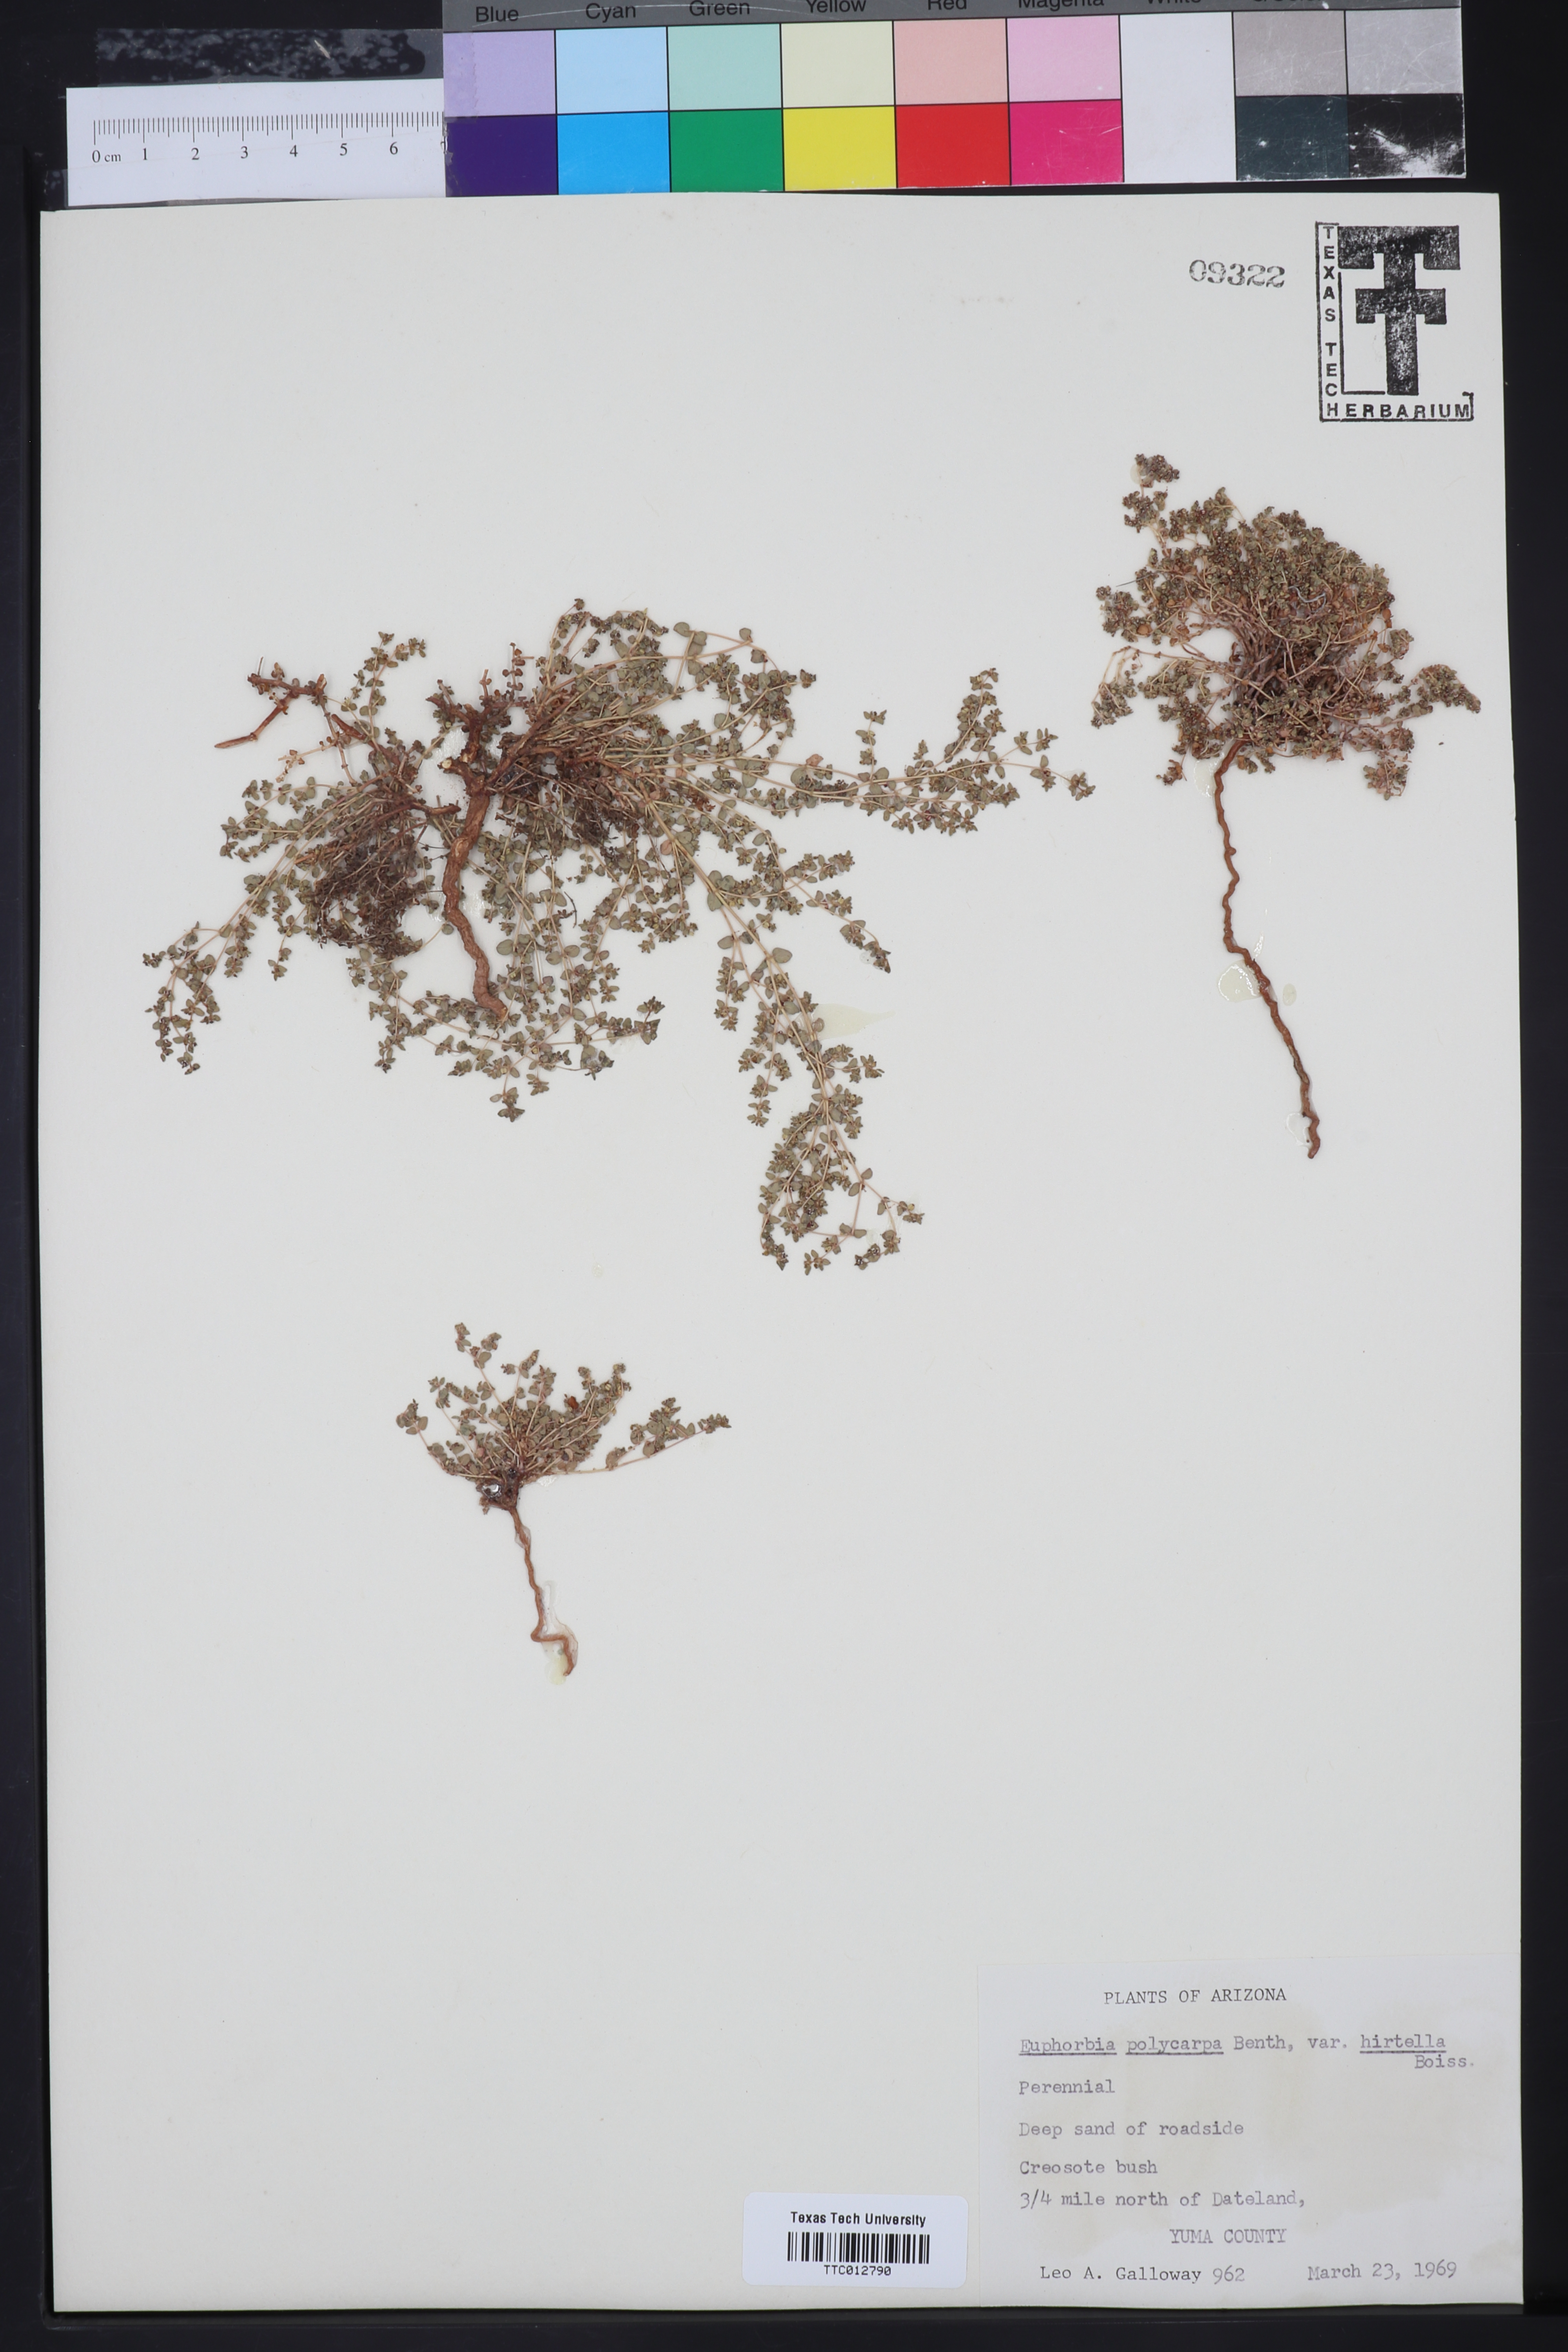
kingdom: Plantae
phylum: Tracheophyta
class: Magnoliopsida
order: Malpighiales
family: Euphorbiaceae
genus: Euphorbia
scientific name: Euphorbia polycarpa
